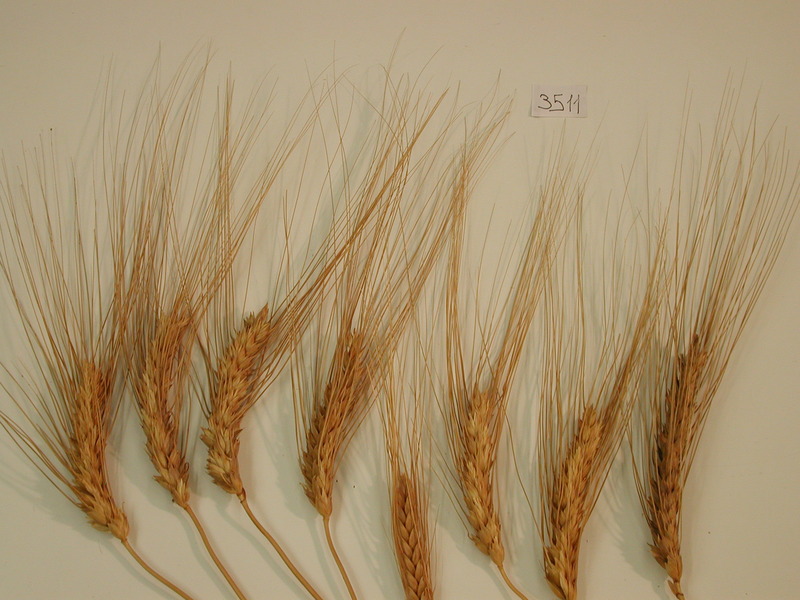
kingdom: Plantae
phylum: Tracheophyta
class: Liliopsida
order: Poales
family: Poaceae
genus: Triticum
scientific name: Triticum durum
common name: Wheat
